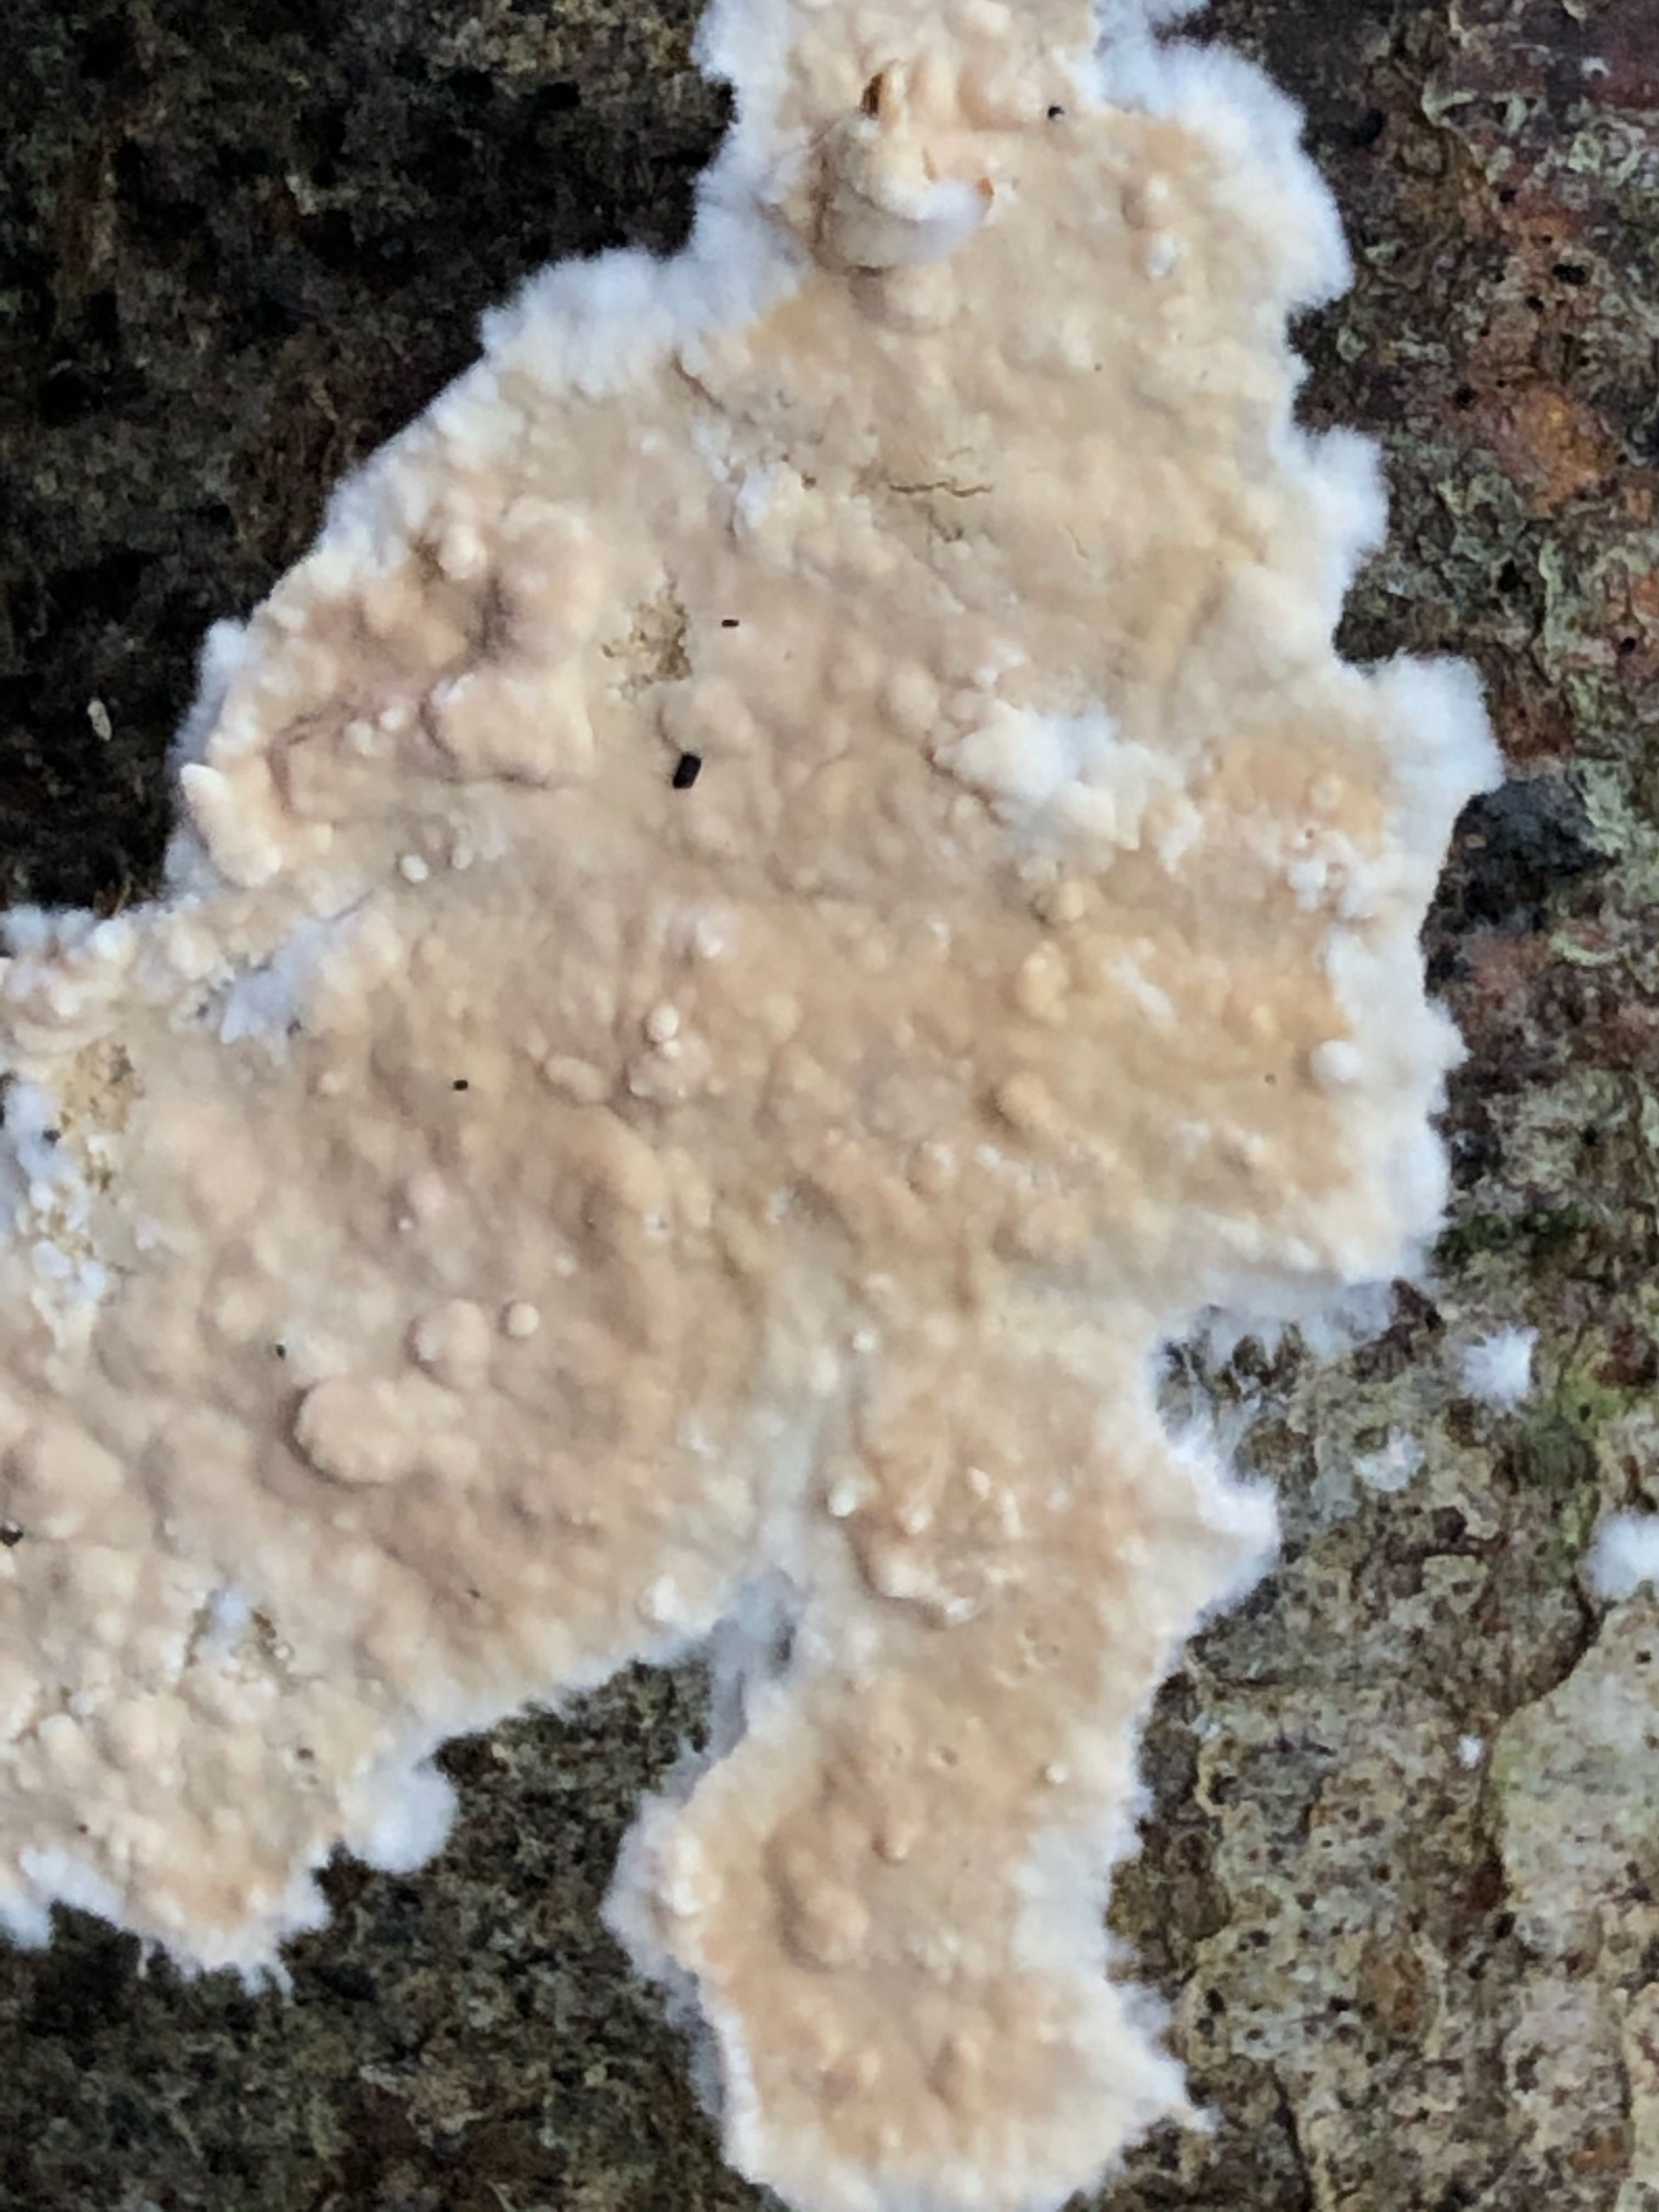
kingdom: Fungi
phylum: Basidiomycota
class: Agaricomycetes
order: Agaricales
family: Physalacriaceae
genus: Cylindrobasidium
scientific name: Cylindrobasidium evolvens
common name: sprækkehinde
